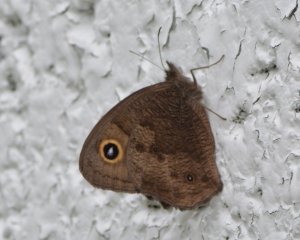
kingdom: Animalia
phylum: Arthropoda
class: Insecta
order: Lepidoptera
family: Nymphalidae
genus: Cercyonis
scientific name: Cercyonis pegala
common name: Common Wood-Nymph
